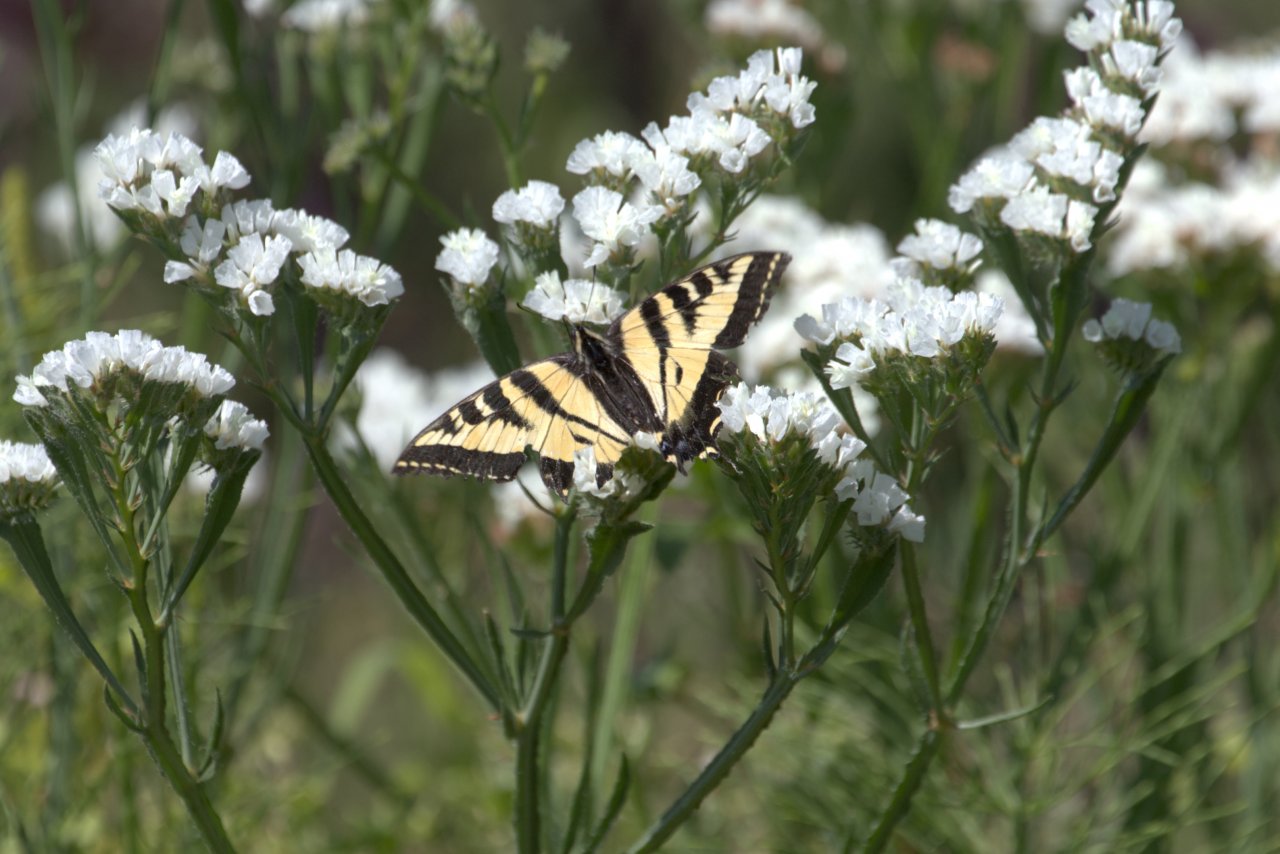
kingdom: Animalia
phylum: Arthropoda
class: Insecta
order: Lepidoptera
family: Papilionidae
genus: Pterourus
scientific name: Pterourus rutulus
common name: Western Tiger Swallowtail
